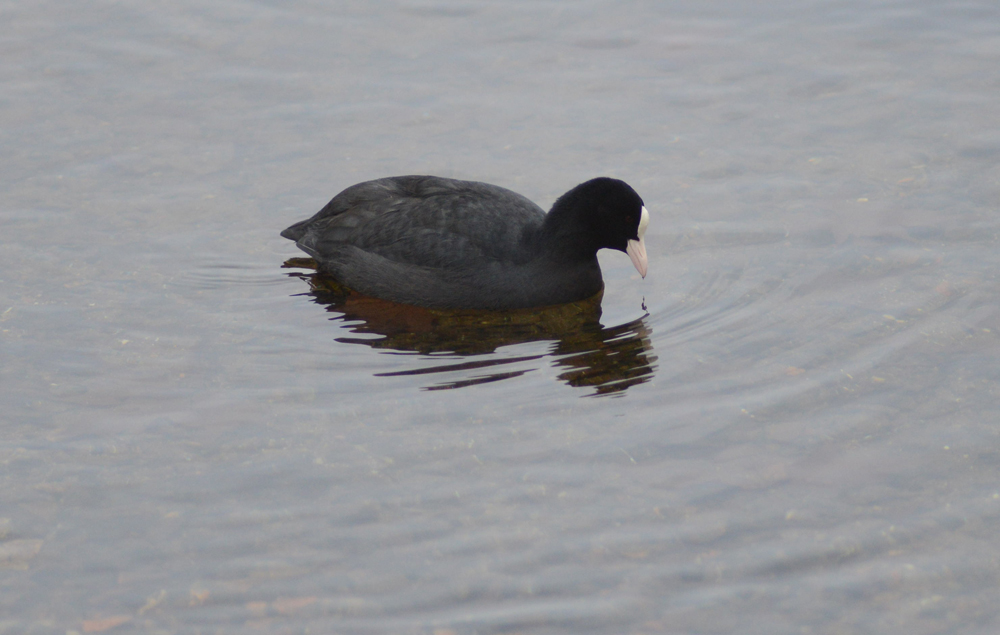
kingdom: Animalia
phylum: Chordata
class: Aves
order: Gruiformes
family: Rallidae
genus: Fulica
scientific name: Fulica atra
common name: Eurasian coot
